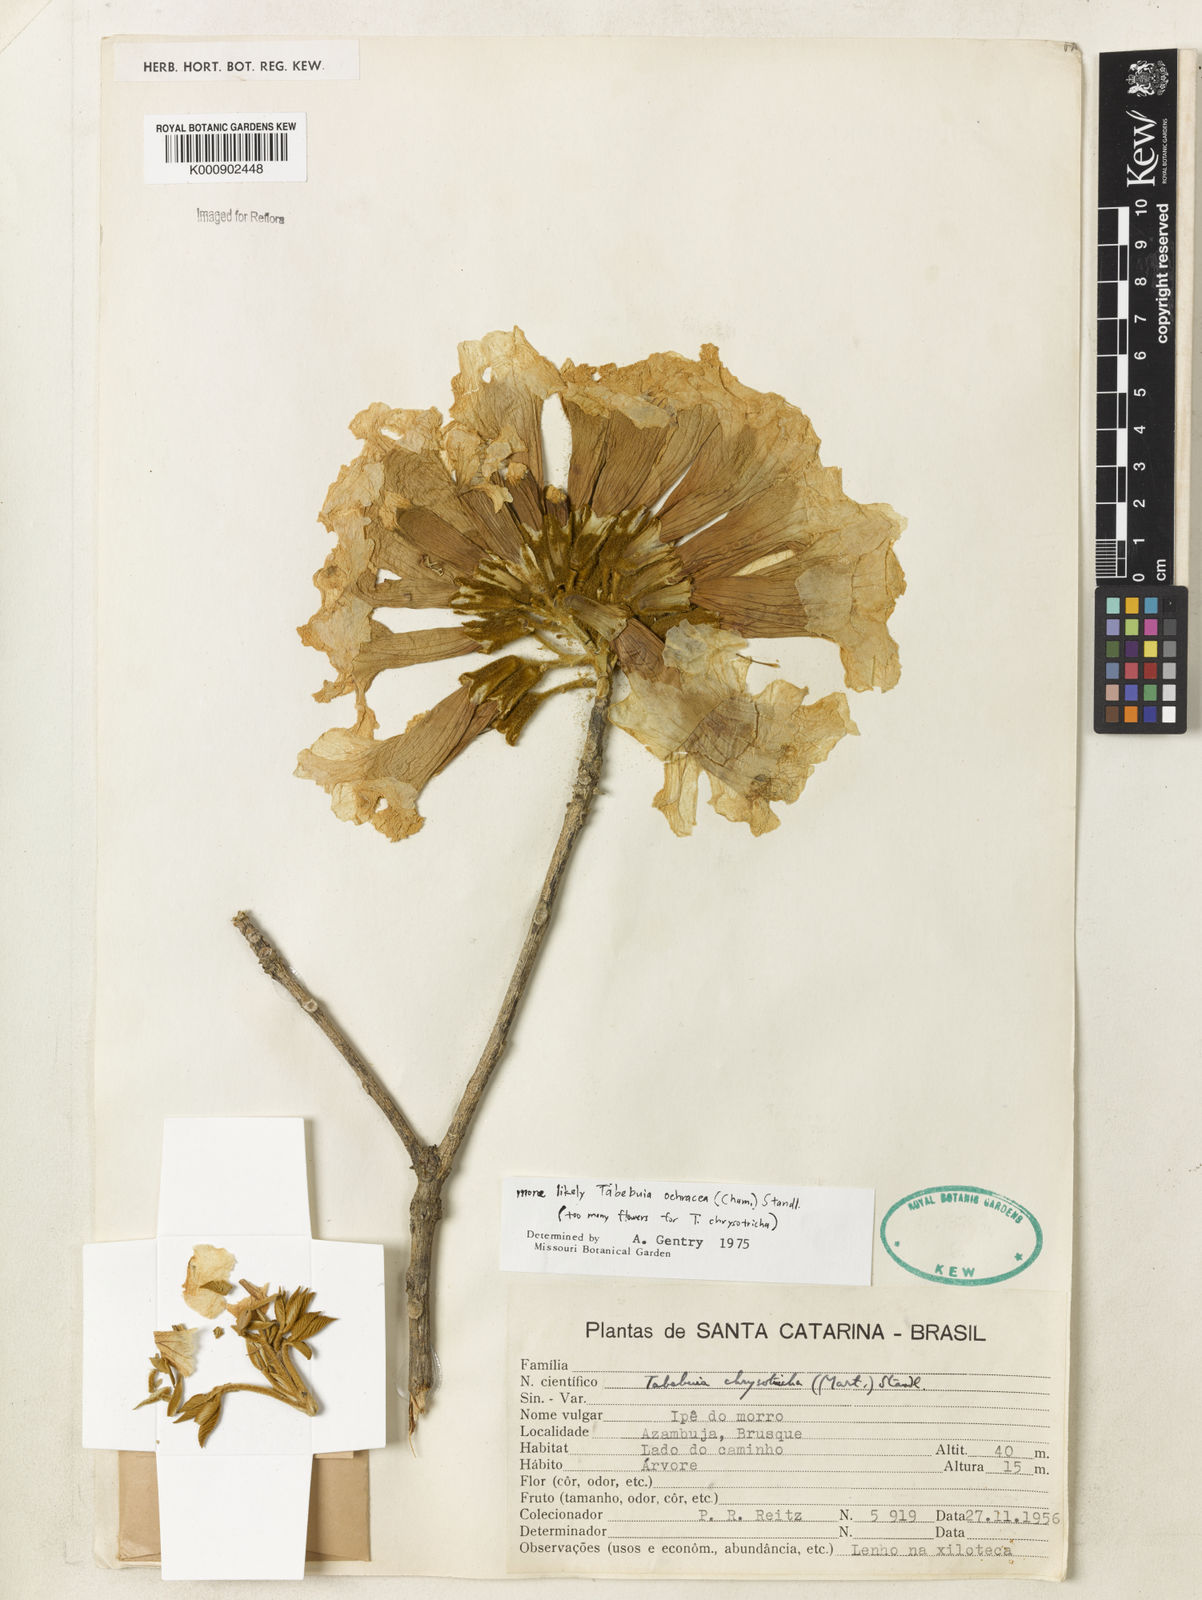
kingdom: Plantae
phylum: Tracheophyta
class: Magnoliopsida
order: Lamiales
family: Bignoniaceae
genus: Handroanthus
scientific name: Handroanthus ochraceus
